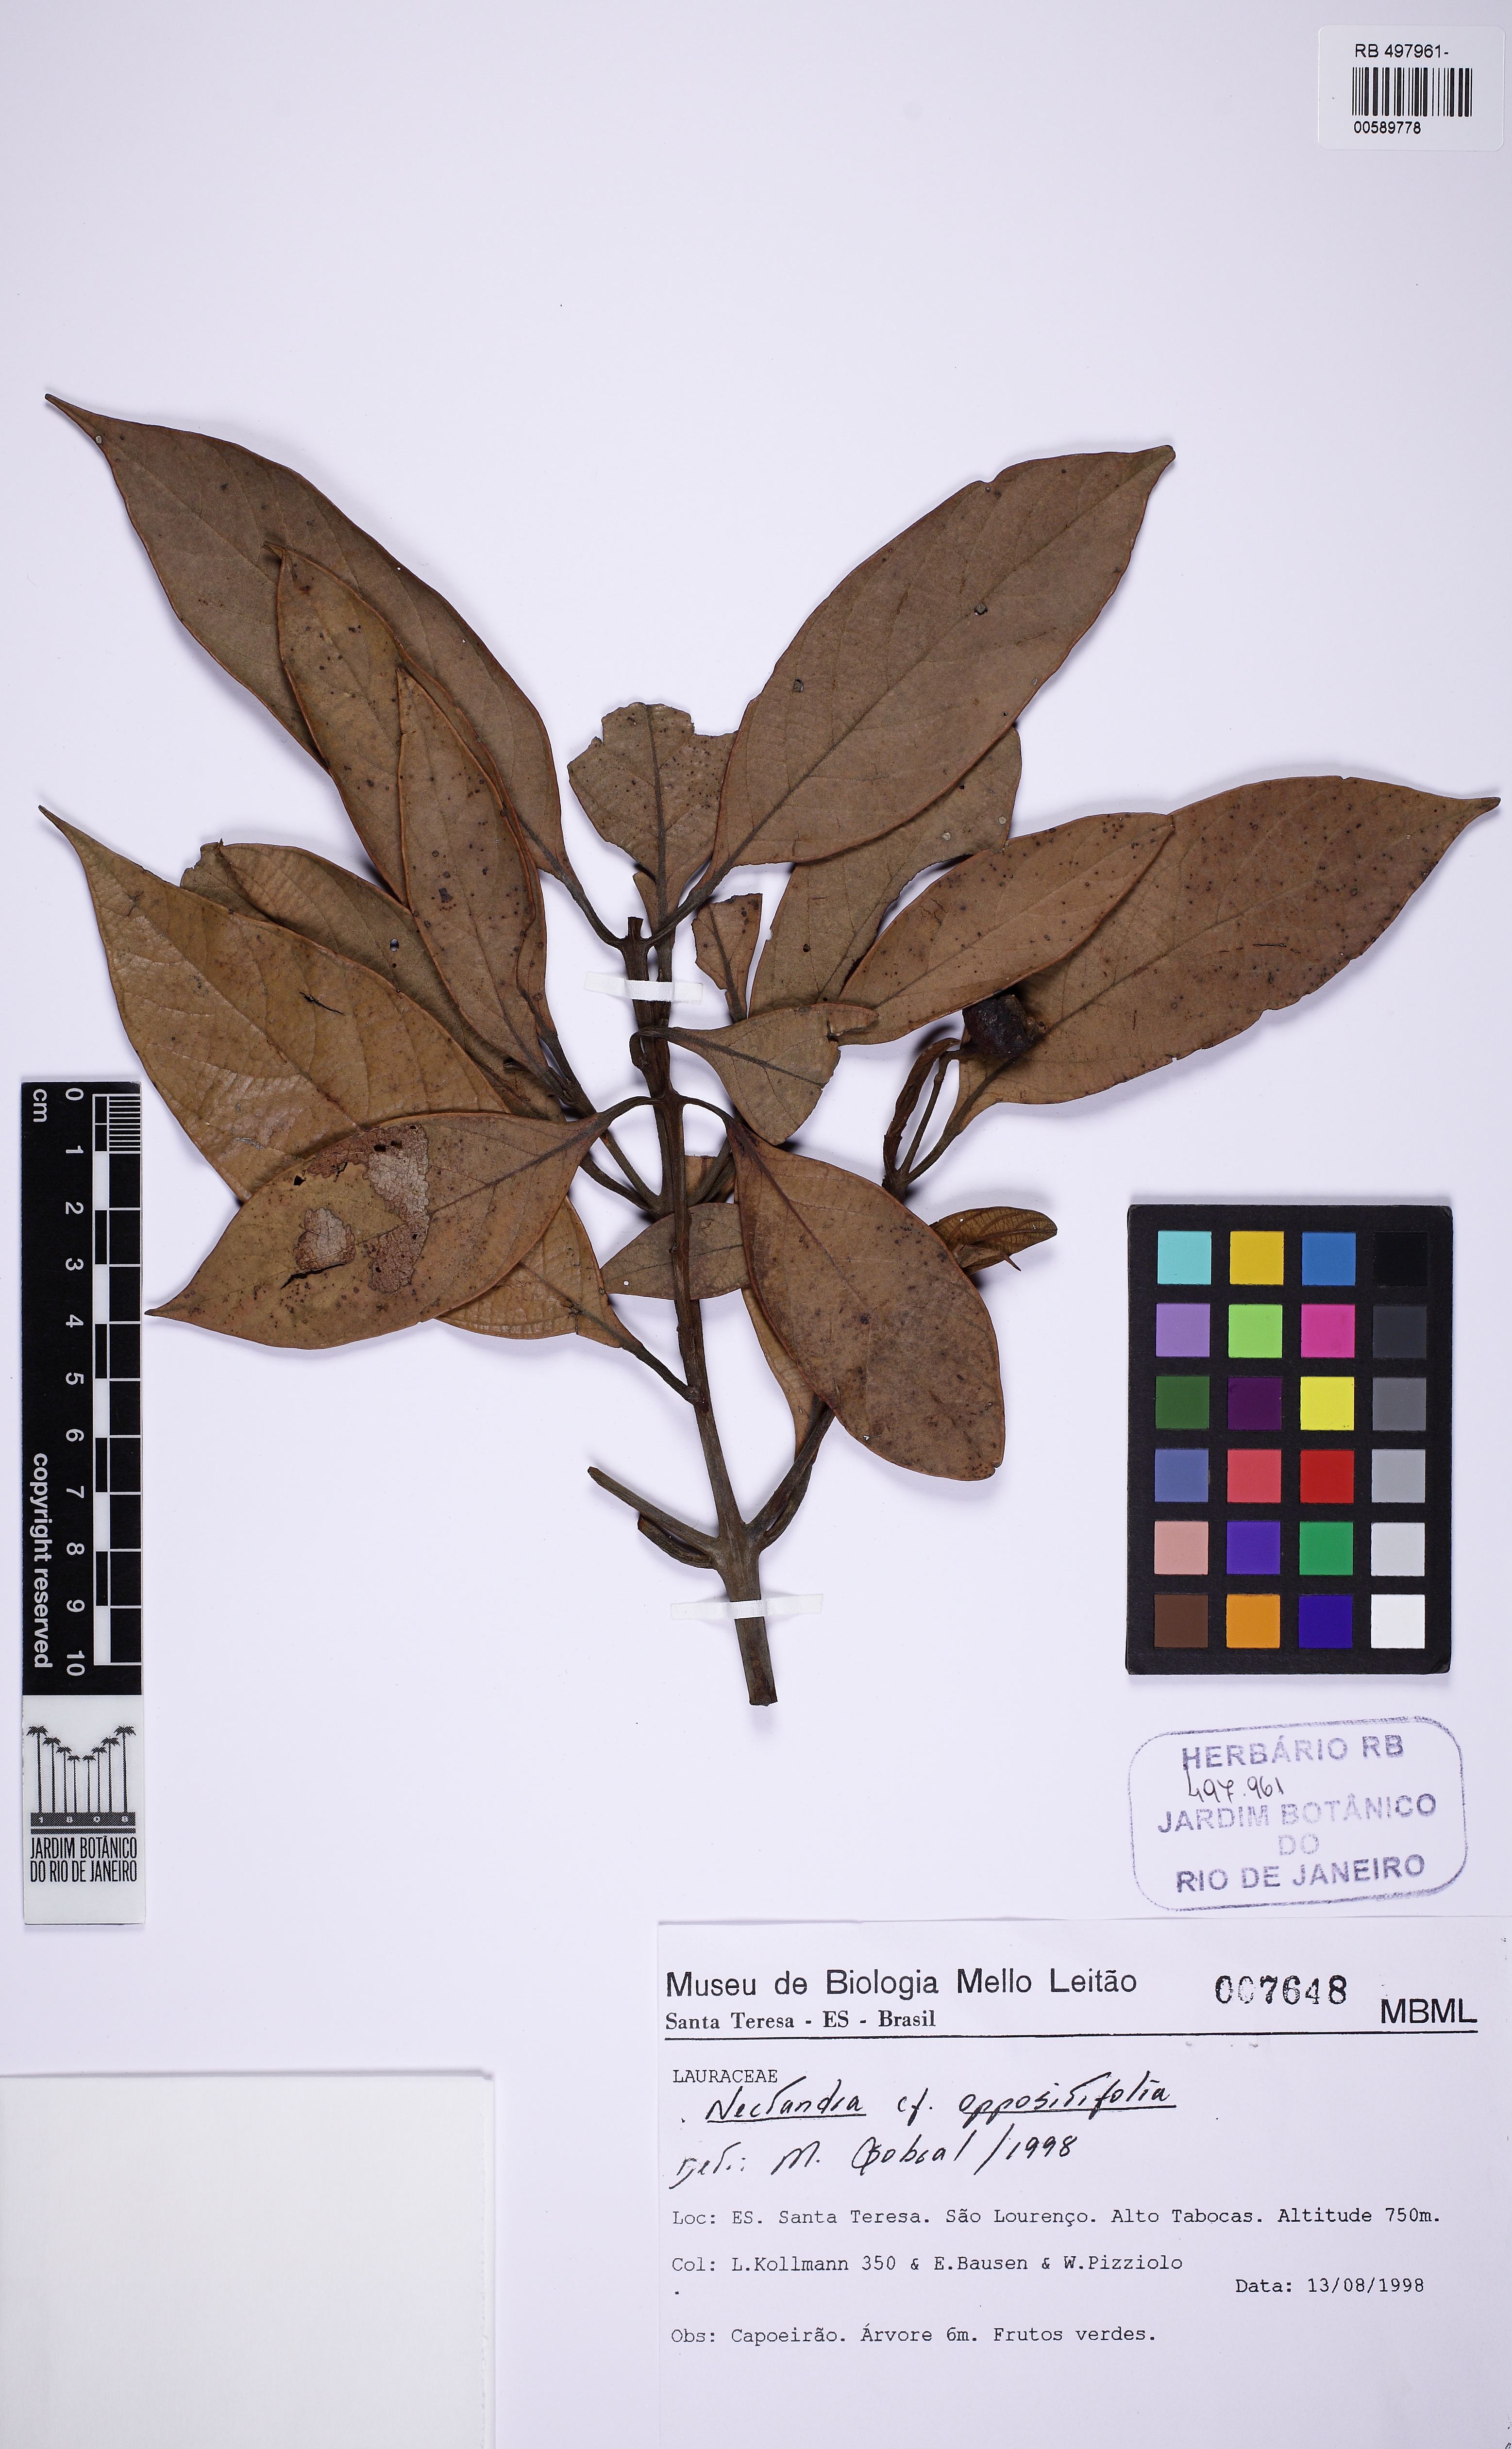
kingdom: Plantae
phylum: Tracheophyta
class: Magnoliopsida
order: Laurales
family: Lauraceae
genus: Nectandra
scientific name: Nectandra oppositifolia
